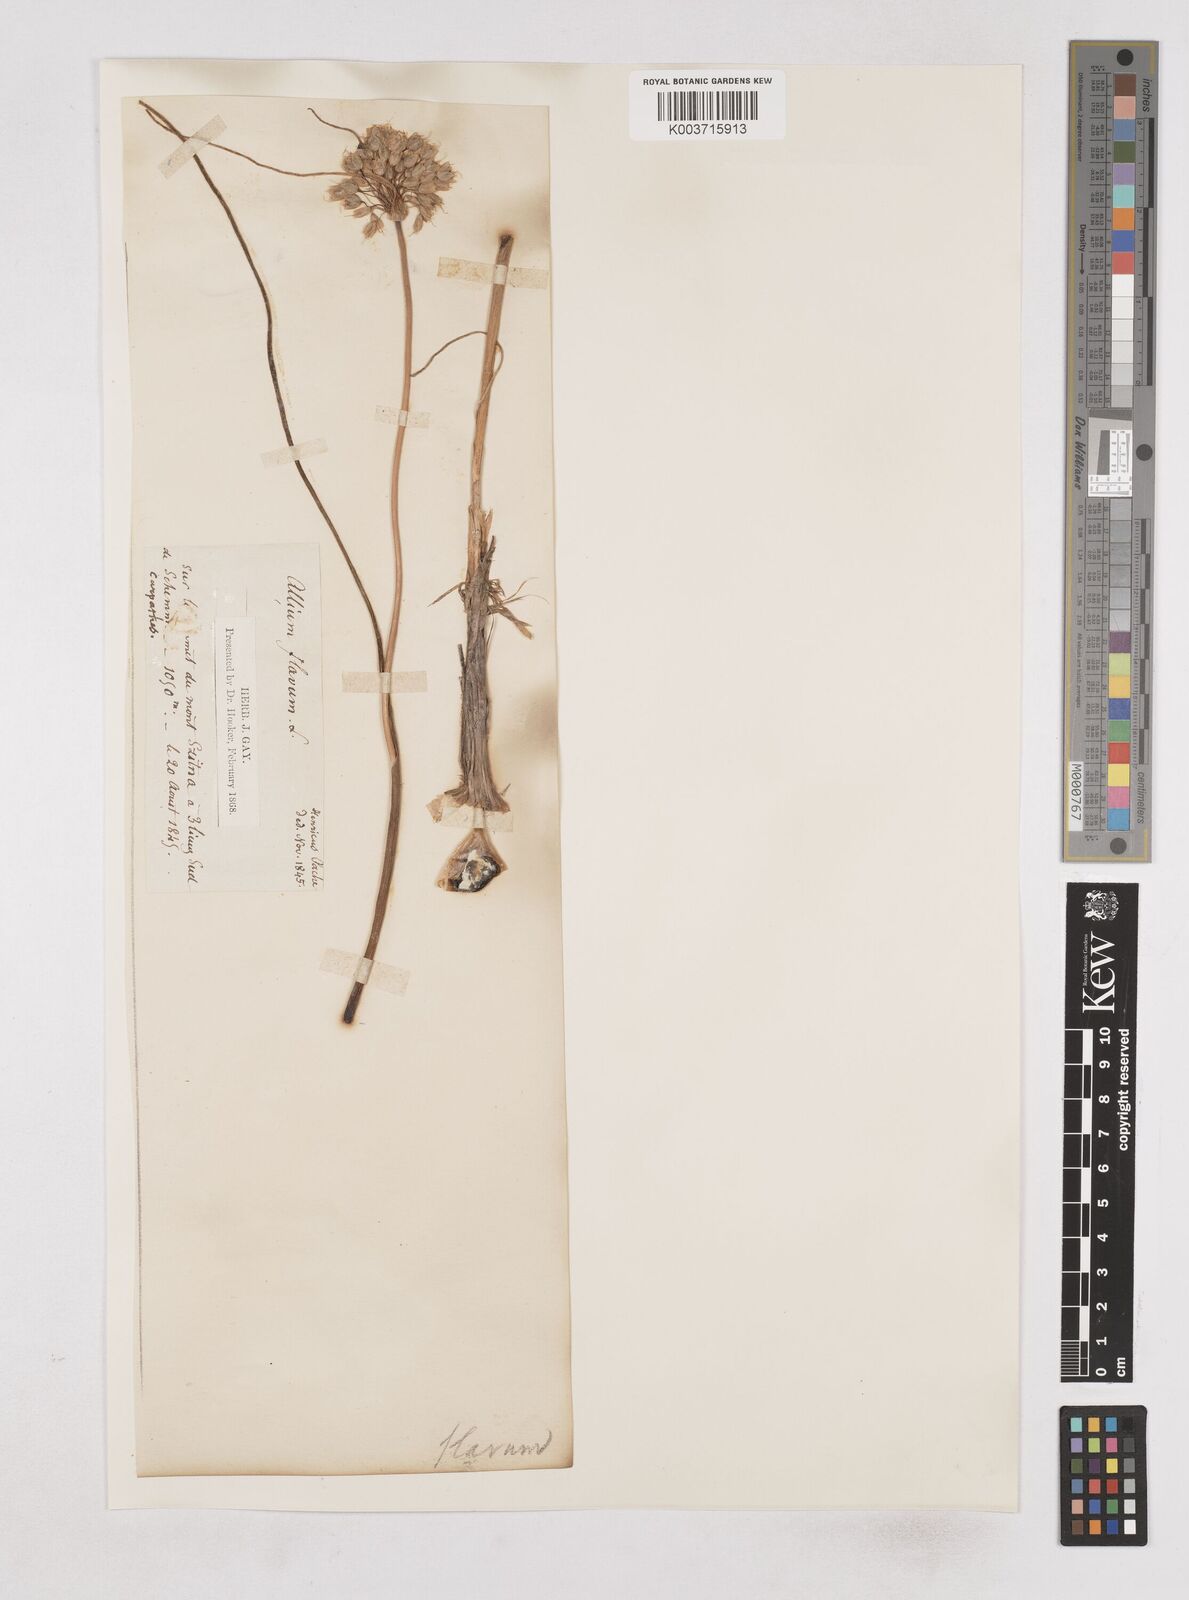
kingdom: Plantae
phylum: Tracheophyta
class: Liliopsida
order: Asparagales
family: Amaryllidaceae
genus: Allium
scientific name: Allium flavum
